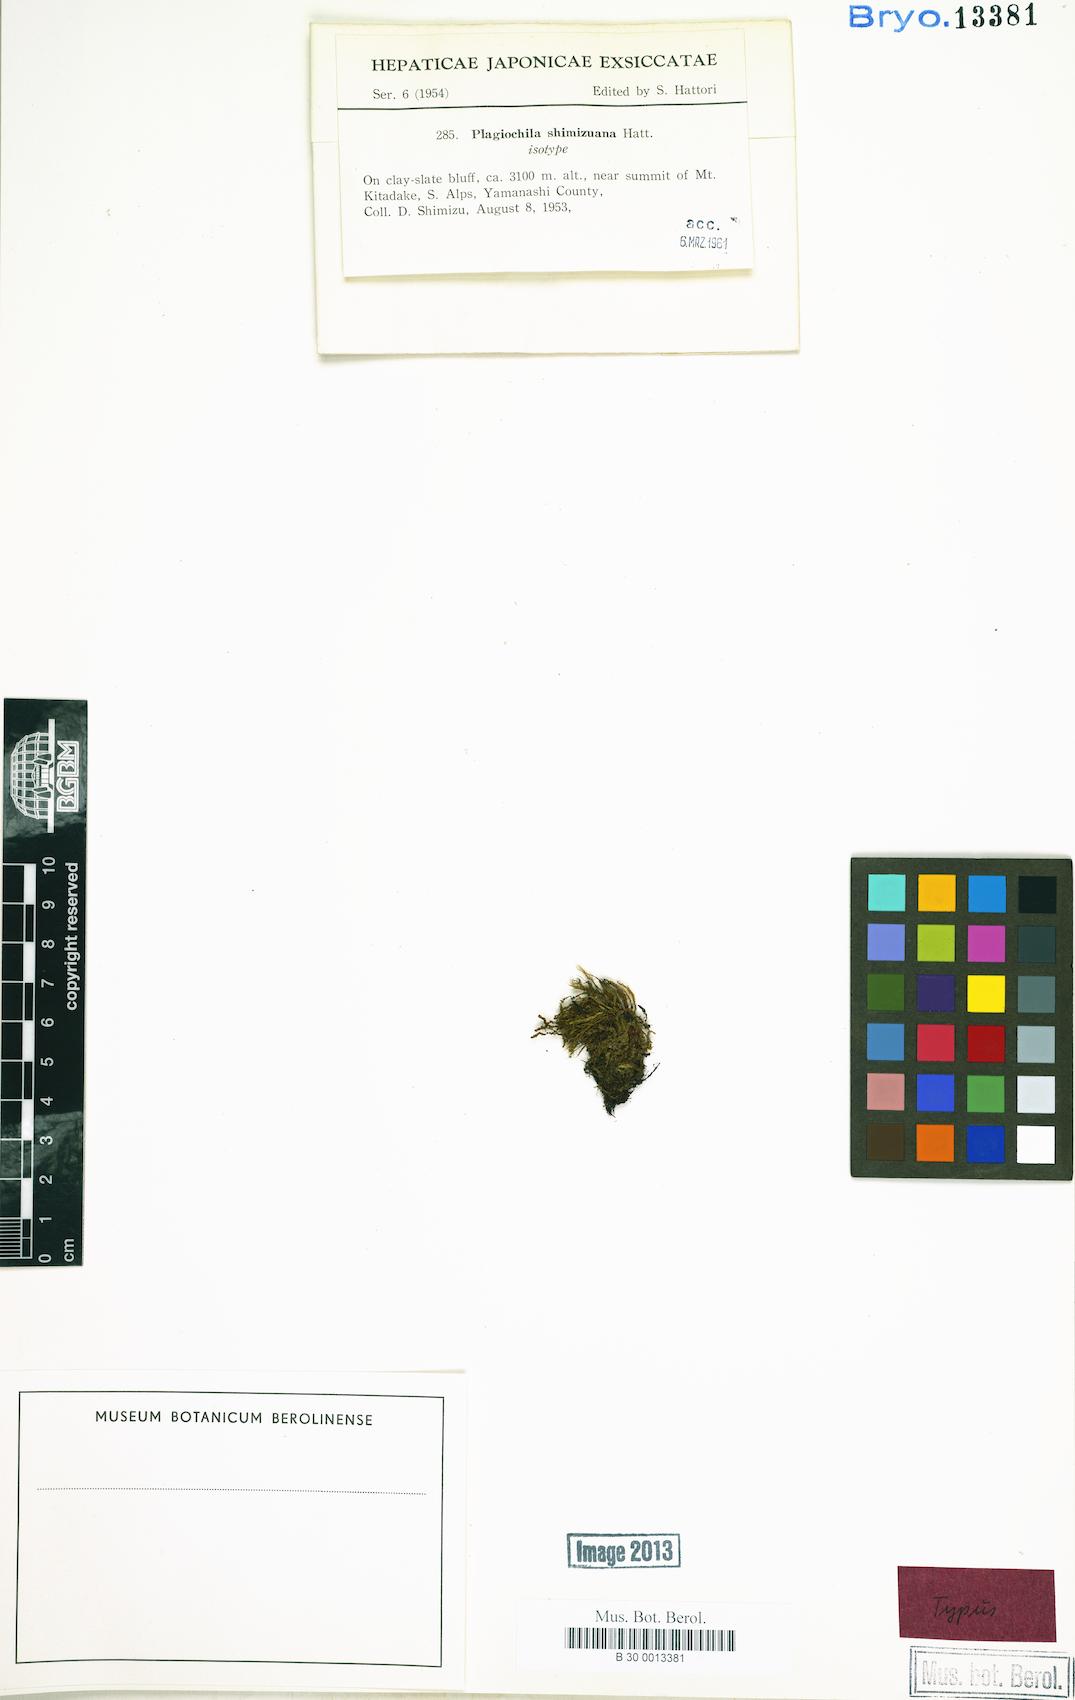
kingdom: Plantae
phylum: Marchantiophyta
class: Jungermanniopsida
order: Jungermanniales
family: Plagiochilaceae
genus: Plagiochila
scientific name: Plagiochila
